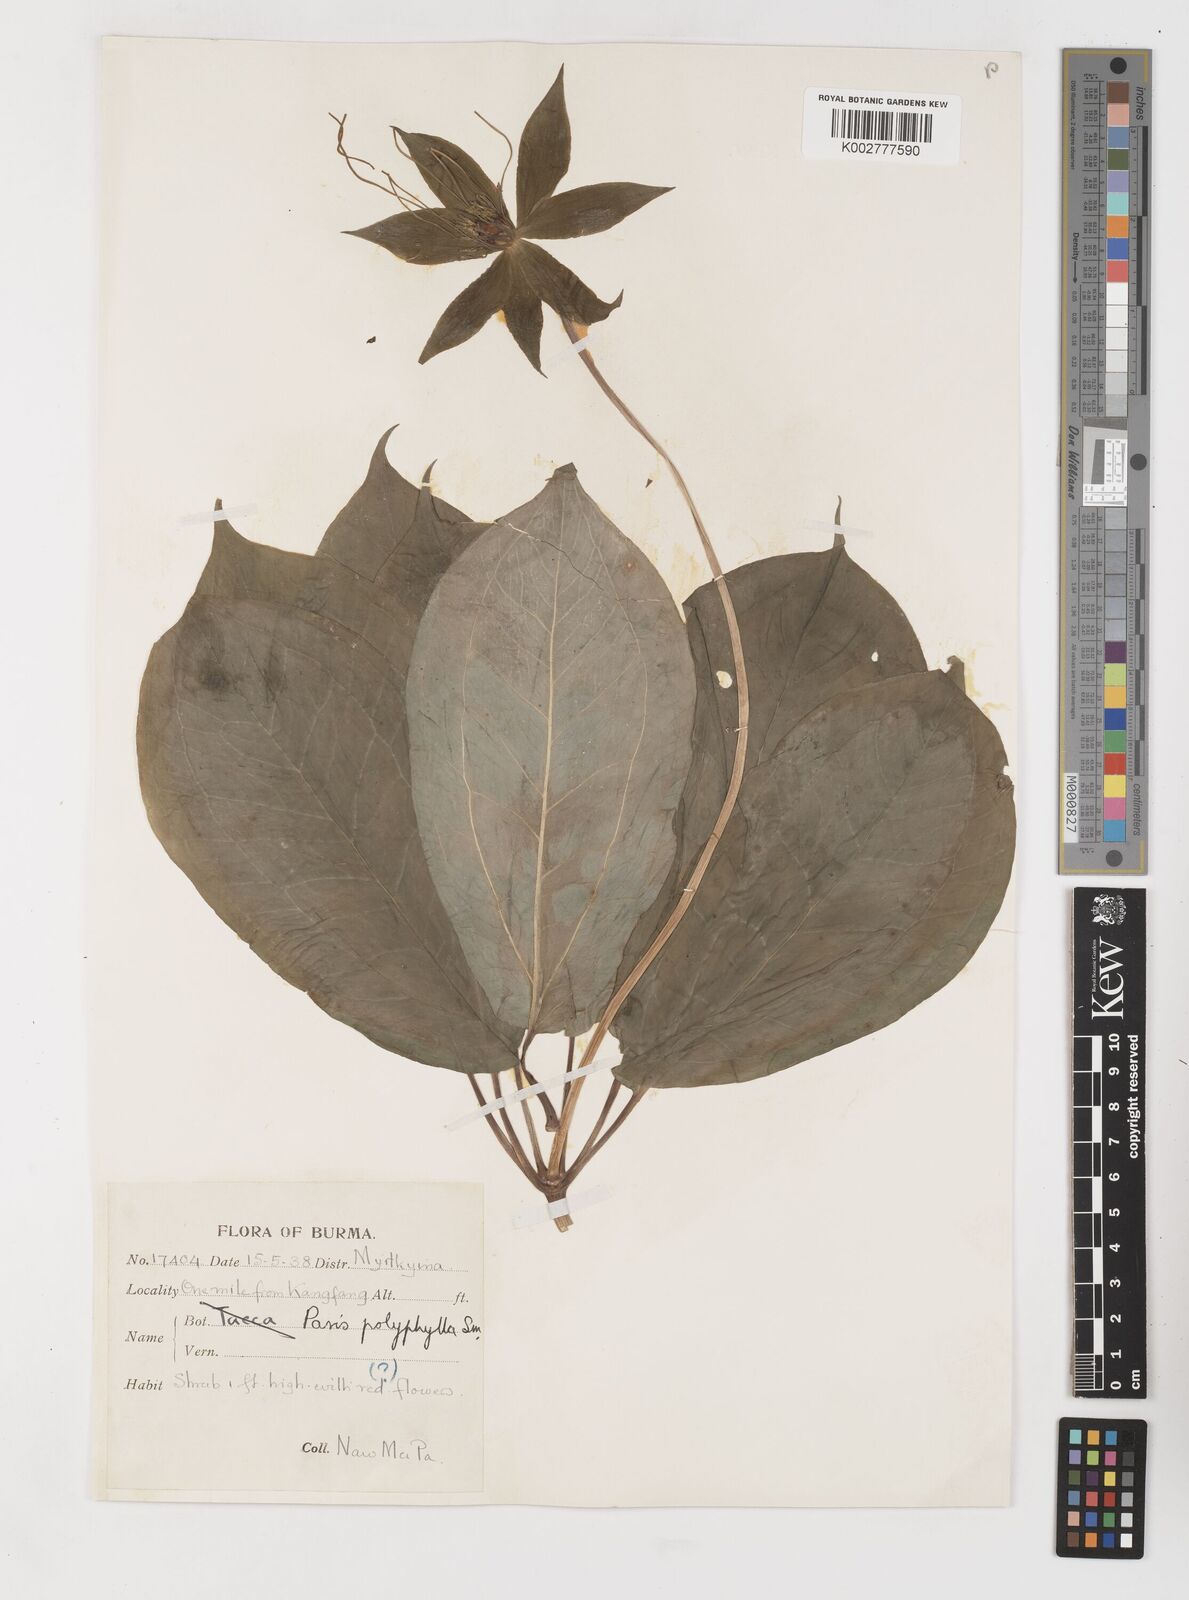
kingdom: Plantae
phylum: Tracheophyta
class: Liliopsida
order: Liliales
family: Melanthiaceae
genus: Paris
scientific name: Paris polyphylla
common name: Love apple
